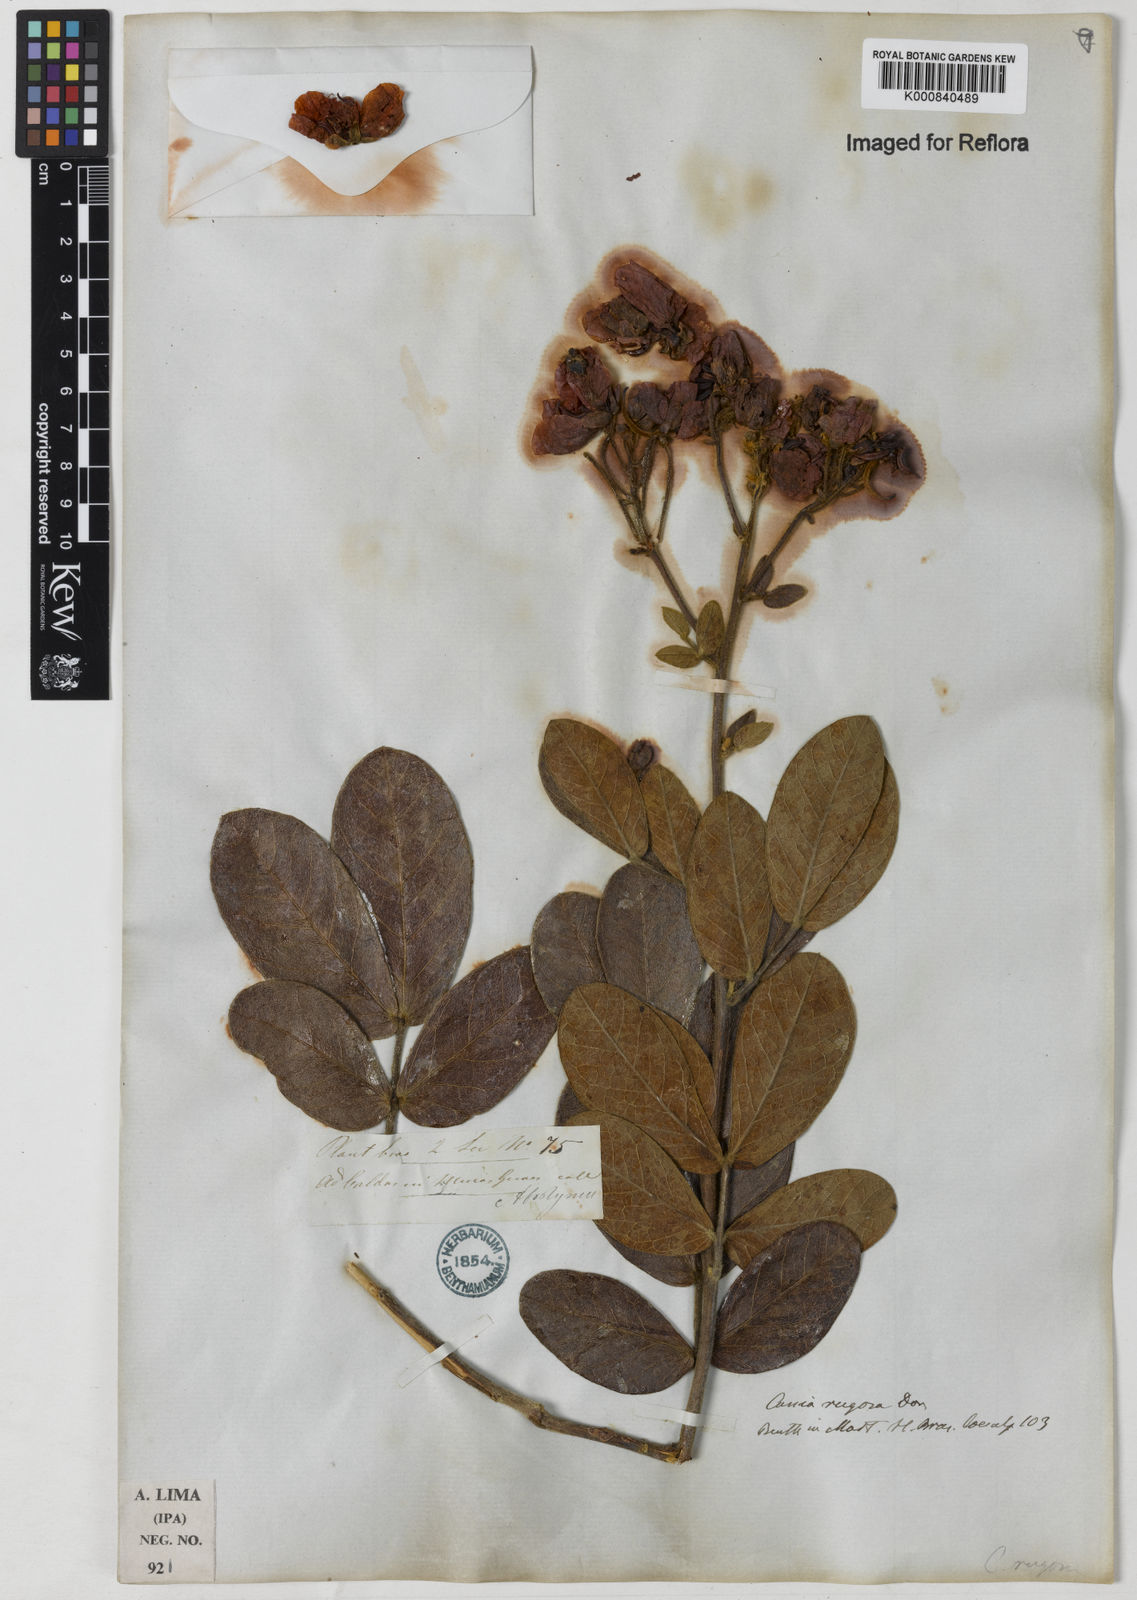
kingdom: Plantae
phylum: Tracheophyta
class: Magnoliopsida
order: Fabales
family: Fabaceae
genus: Senna
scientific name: Senna rugosa
